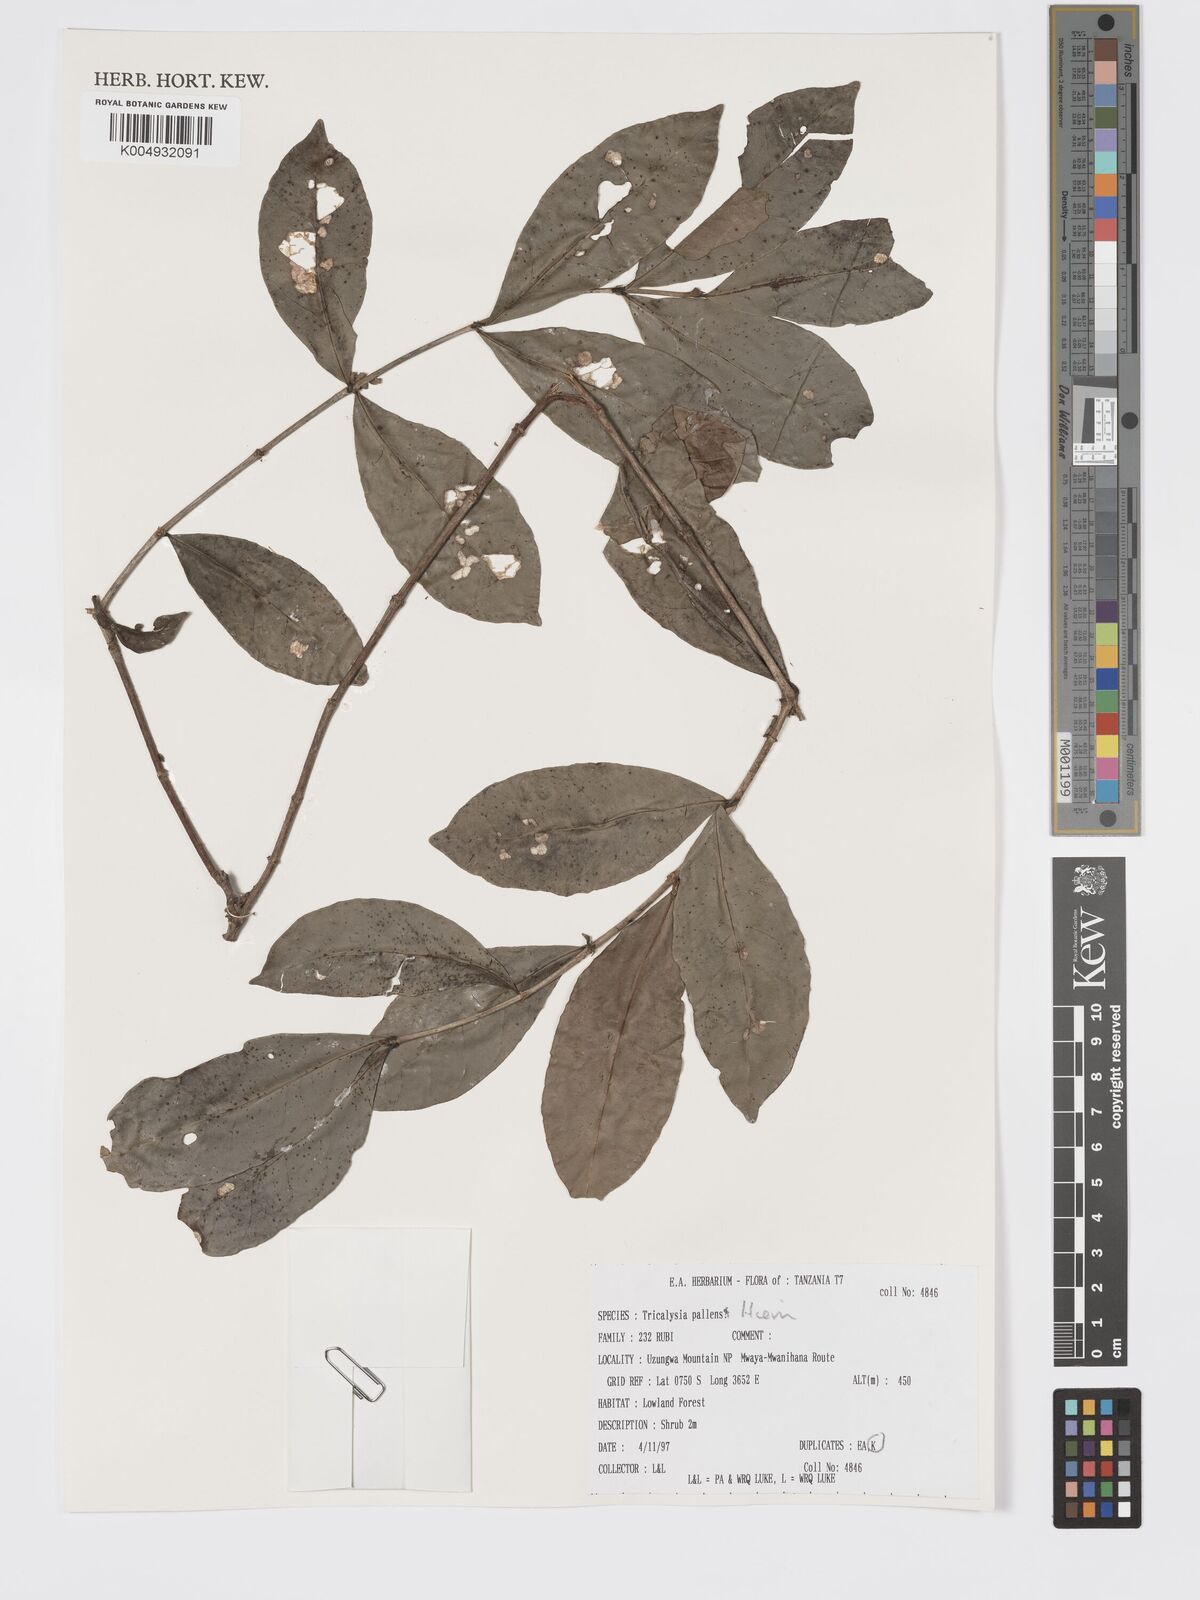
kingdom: Plantae
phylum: Tracheophyta
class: Magnoliopsida
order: Gentianales
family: Rubiaceae
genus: Tricalysia
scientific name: Tricalysia pallens
